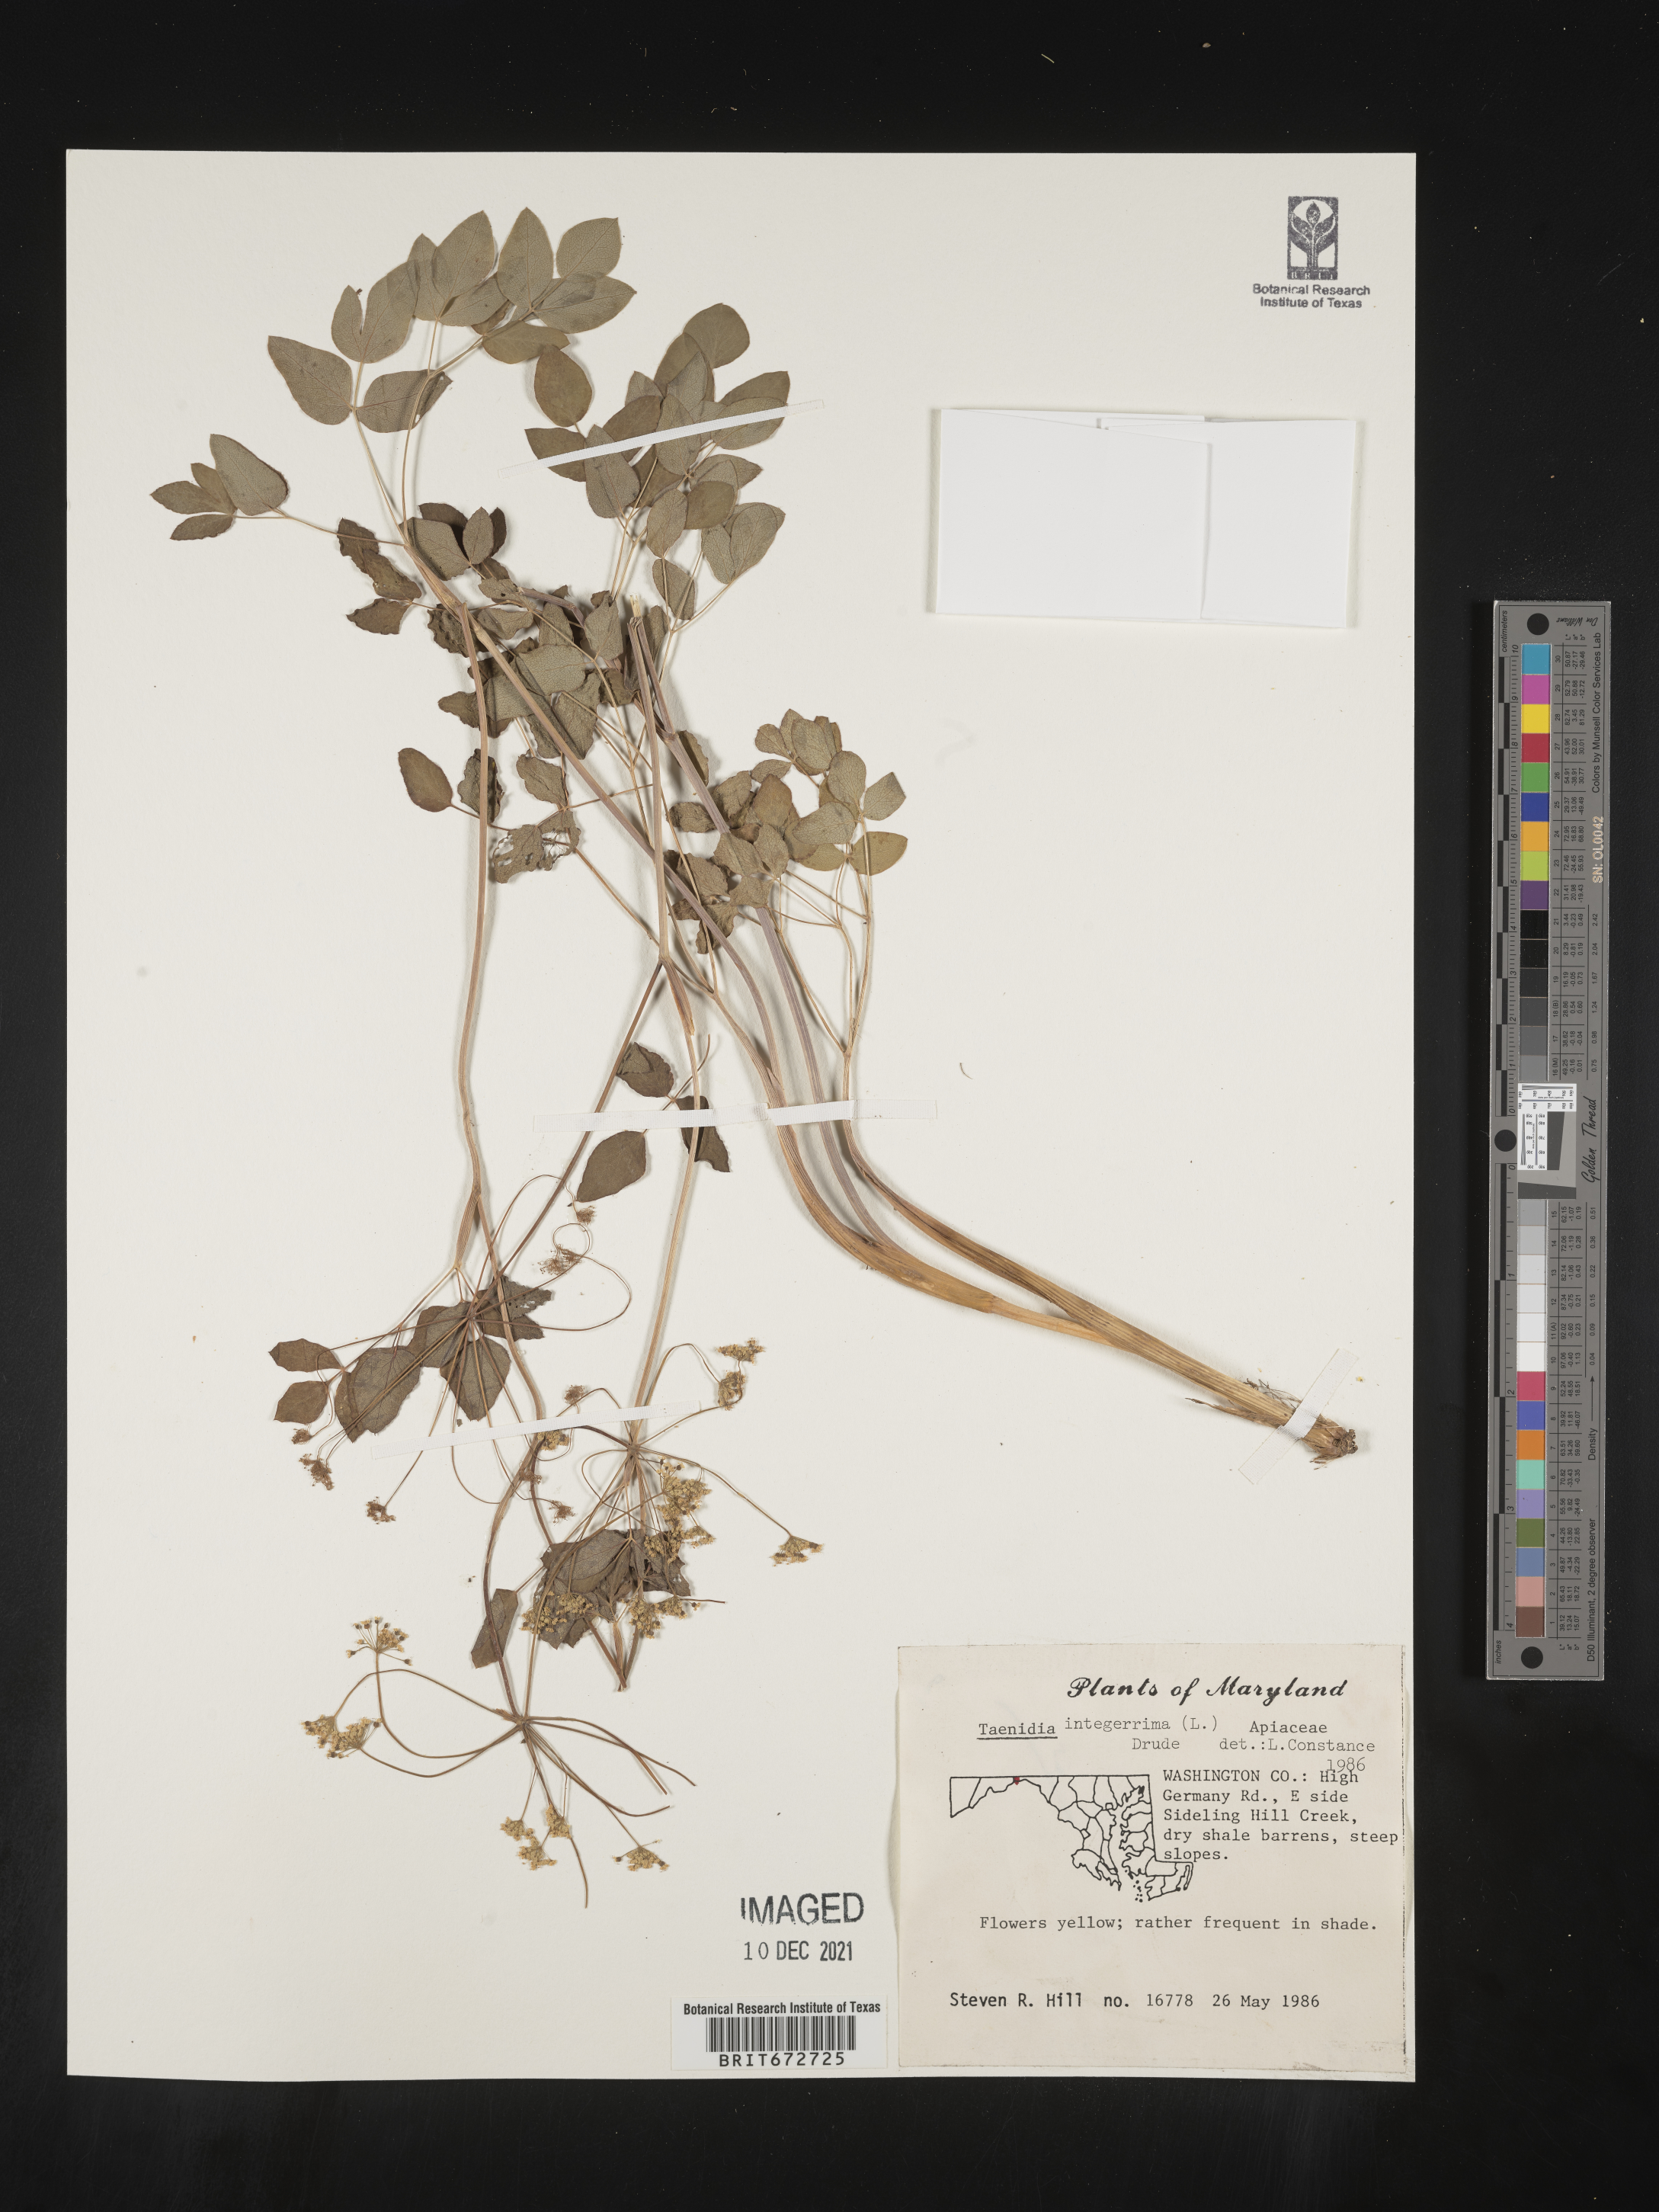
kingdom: Plantae
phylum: Tracheophyta
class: Magnoliopsida
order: Apiales
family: Apiaceae
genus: Taenidia
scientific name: Taenidia
